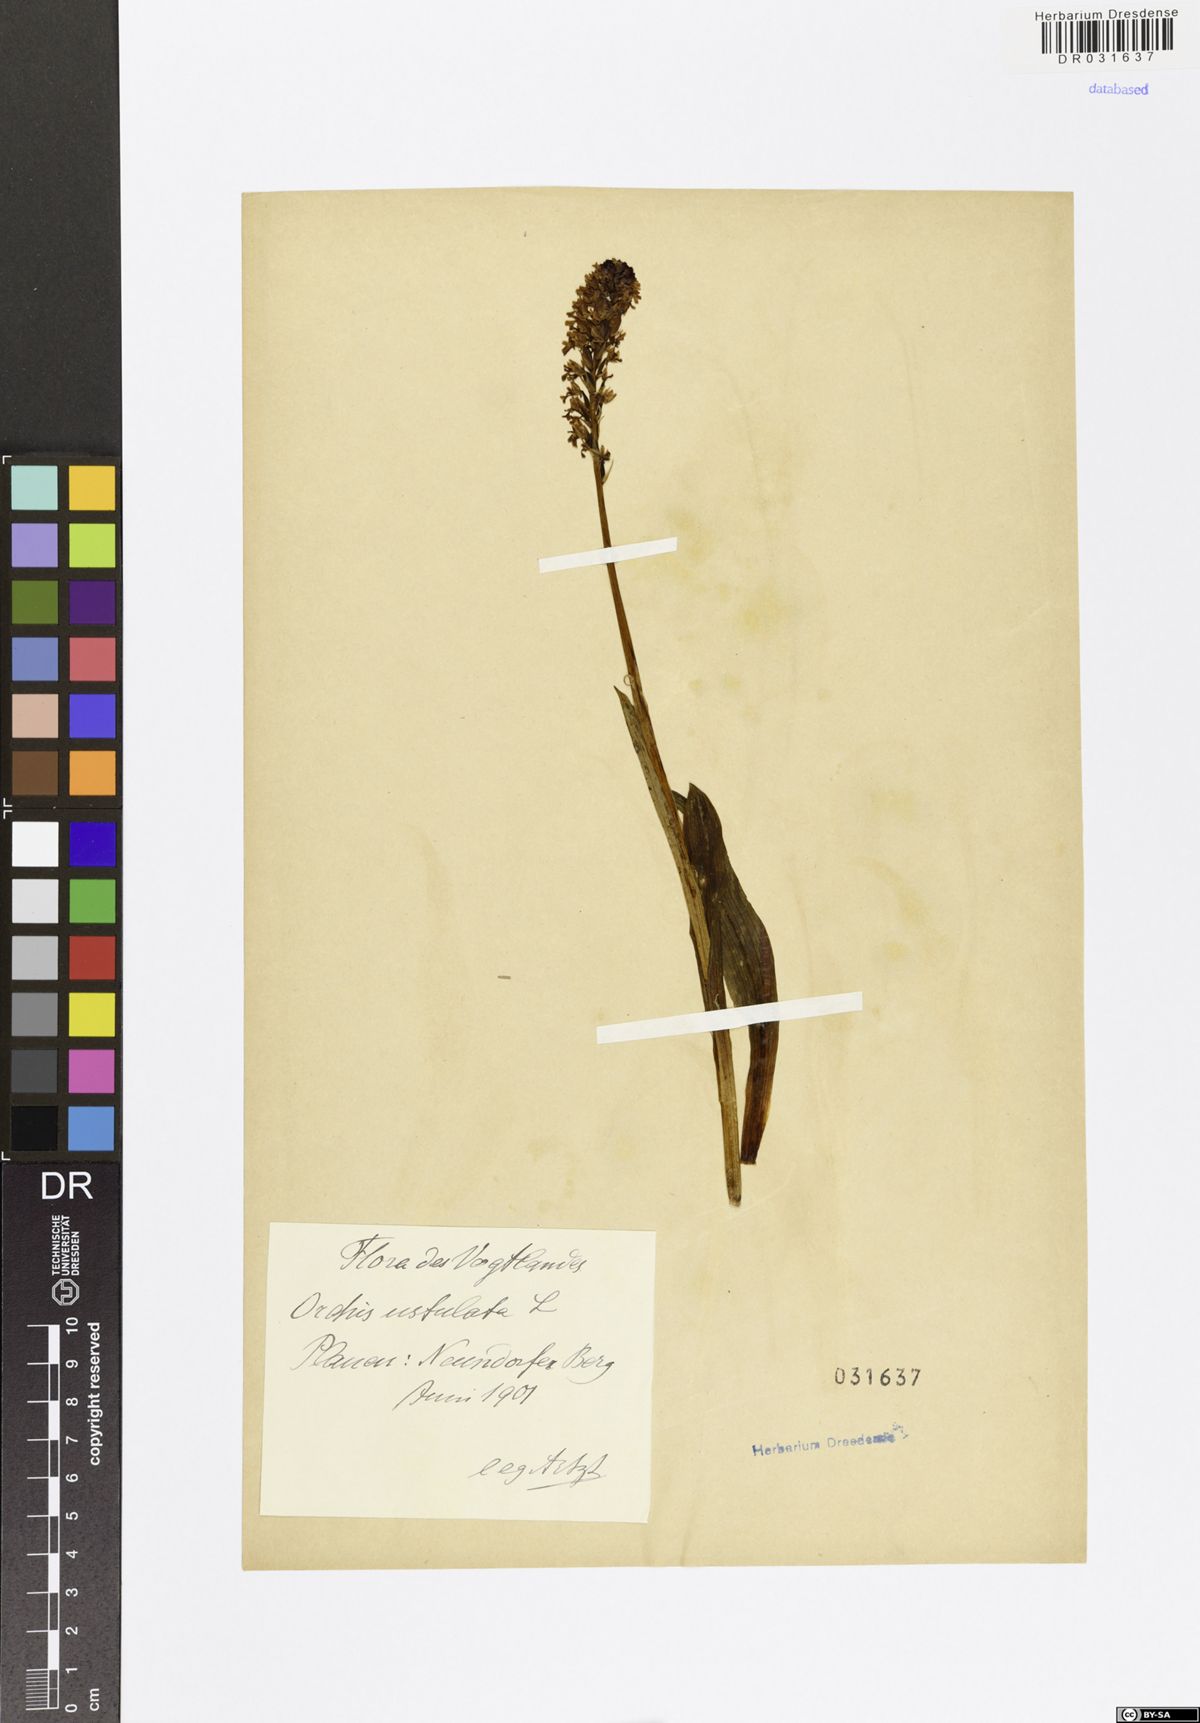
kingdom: Plantae
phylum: Tracheophyta
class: Liliopsida
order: Asparagales
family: Orchidaceae
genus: Neotinea
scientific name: Neotinea ustulata
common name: Burnt orchid
